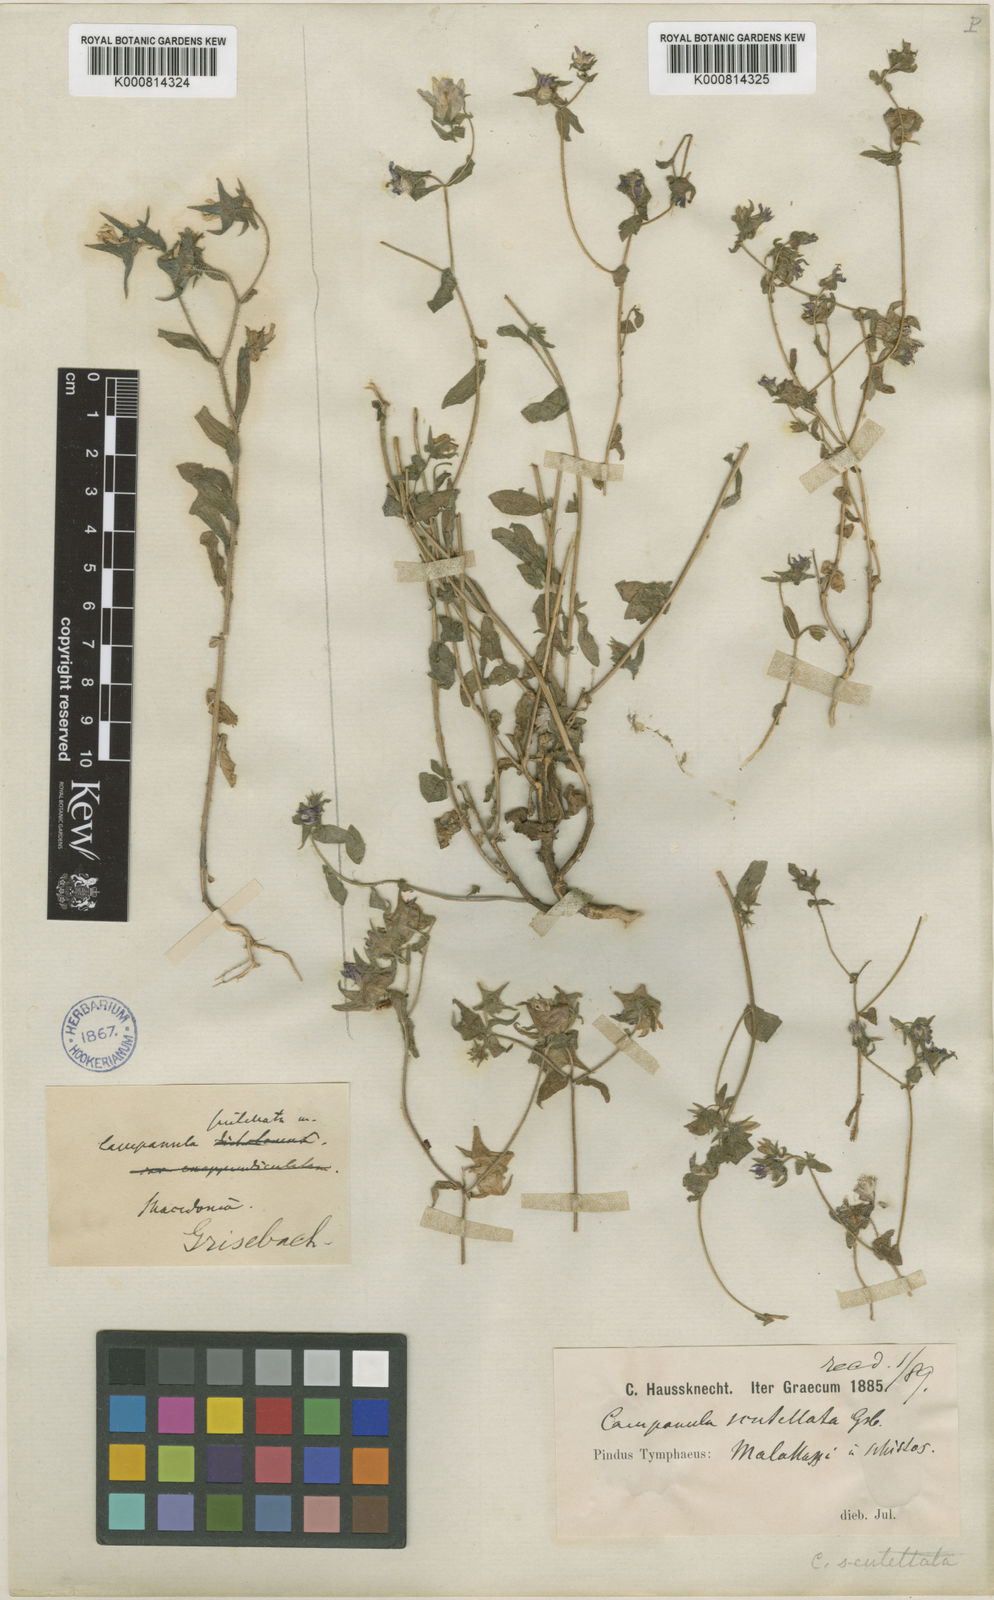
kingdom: Plantae
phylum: Tracheophyta
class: Magnoliopsida
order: Asterales
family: Campanulaceae
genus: Campanula
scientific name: Campanula scutellata
